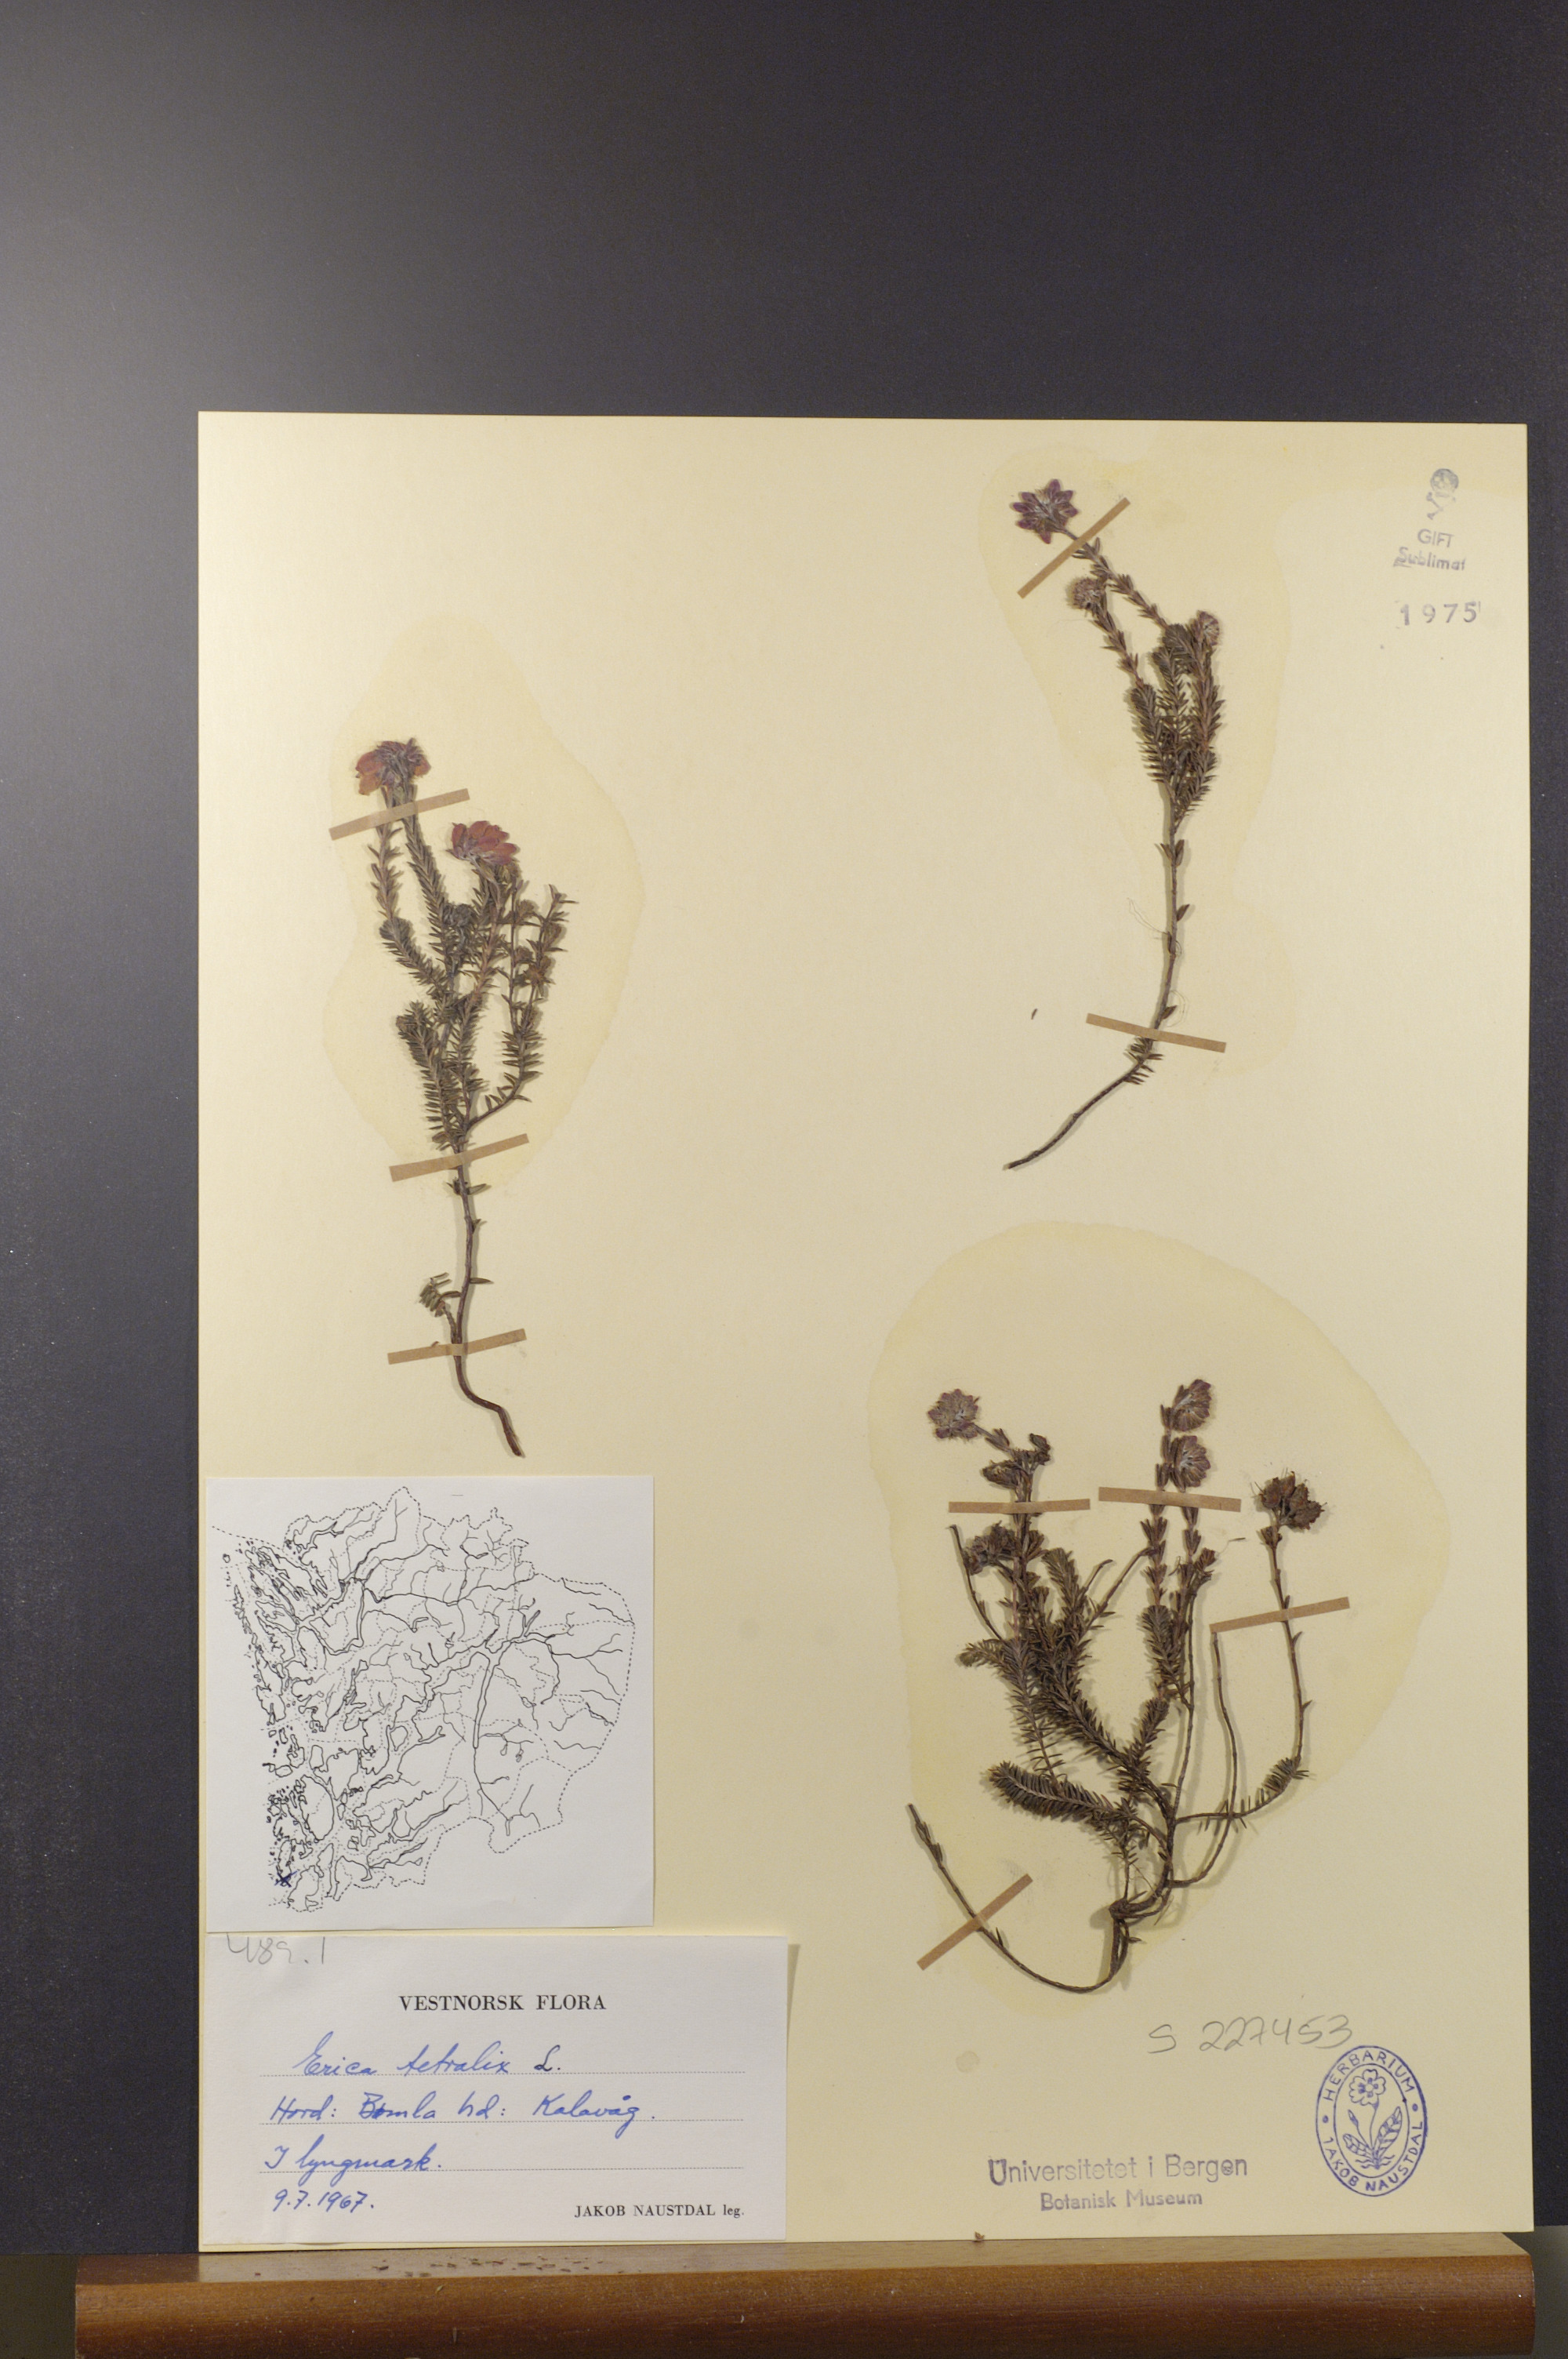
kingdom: Plantae
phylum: Tracheophyta
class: Magnoliopsida
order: Ericales
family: Ericaceae
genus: Erica
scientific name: Erica tetralix
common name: Cross-leaved heath
